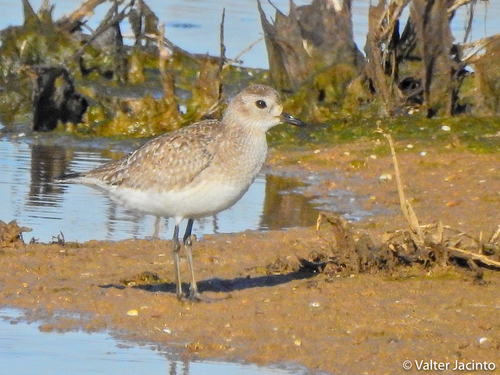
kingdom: Animalia
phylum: Chordata
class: Aves
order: Charadriiformes
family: Charadriidae
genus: Pluvialis
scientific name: Pluvialis squatarola
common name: Grey plover
